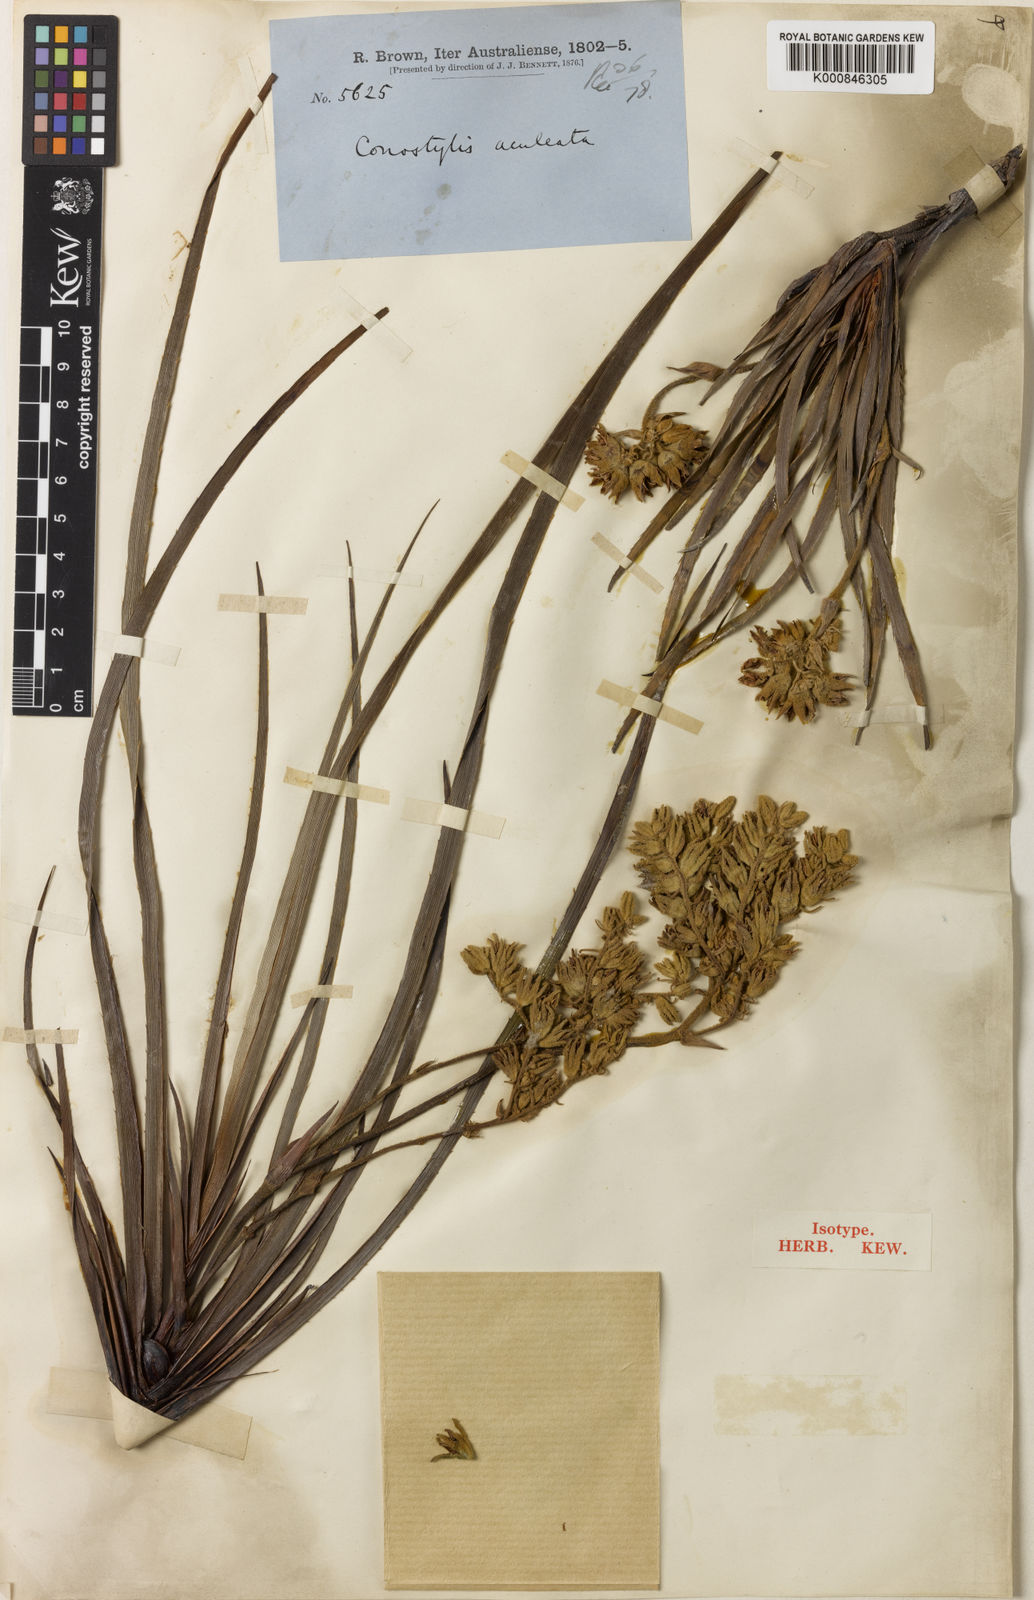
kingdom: Plantae
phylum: Tracheophyta
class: Liliopsida
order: Commelinales
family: Haemodoraceae
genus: Conostylis
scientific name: Conostylis aculeata
